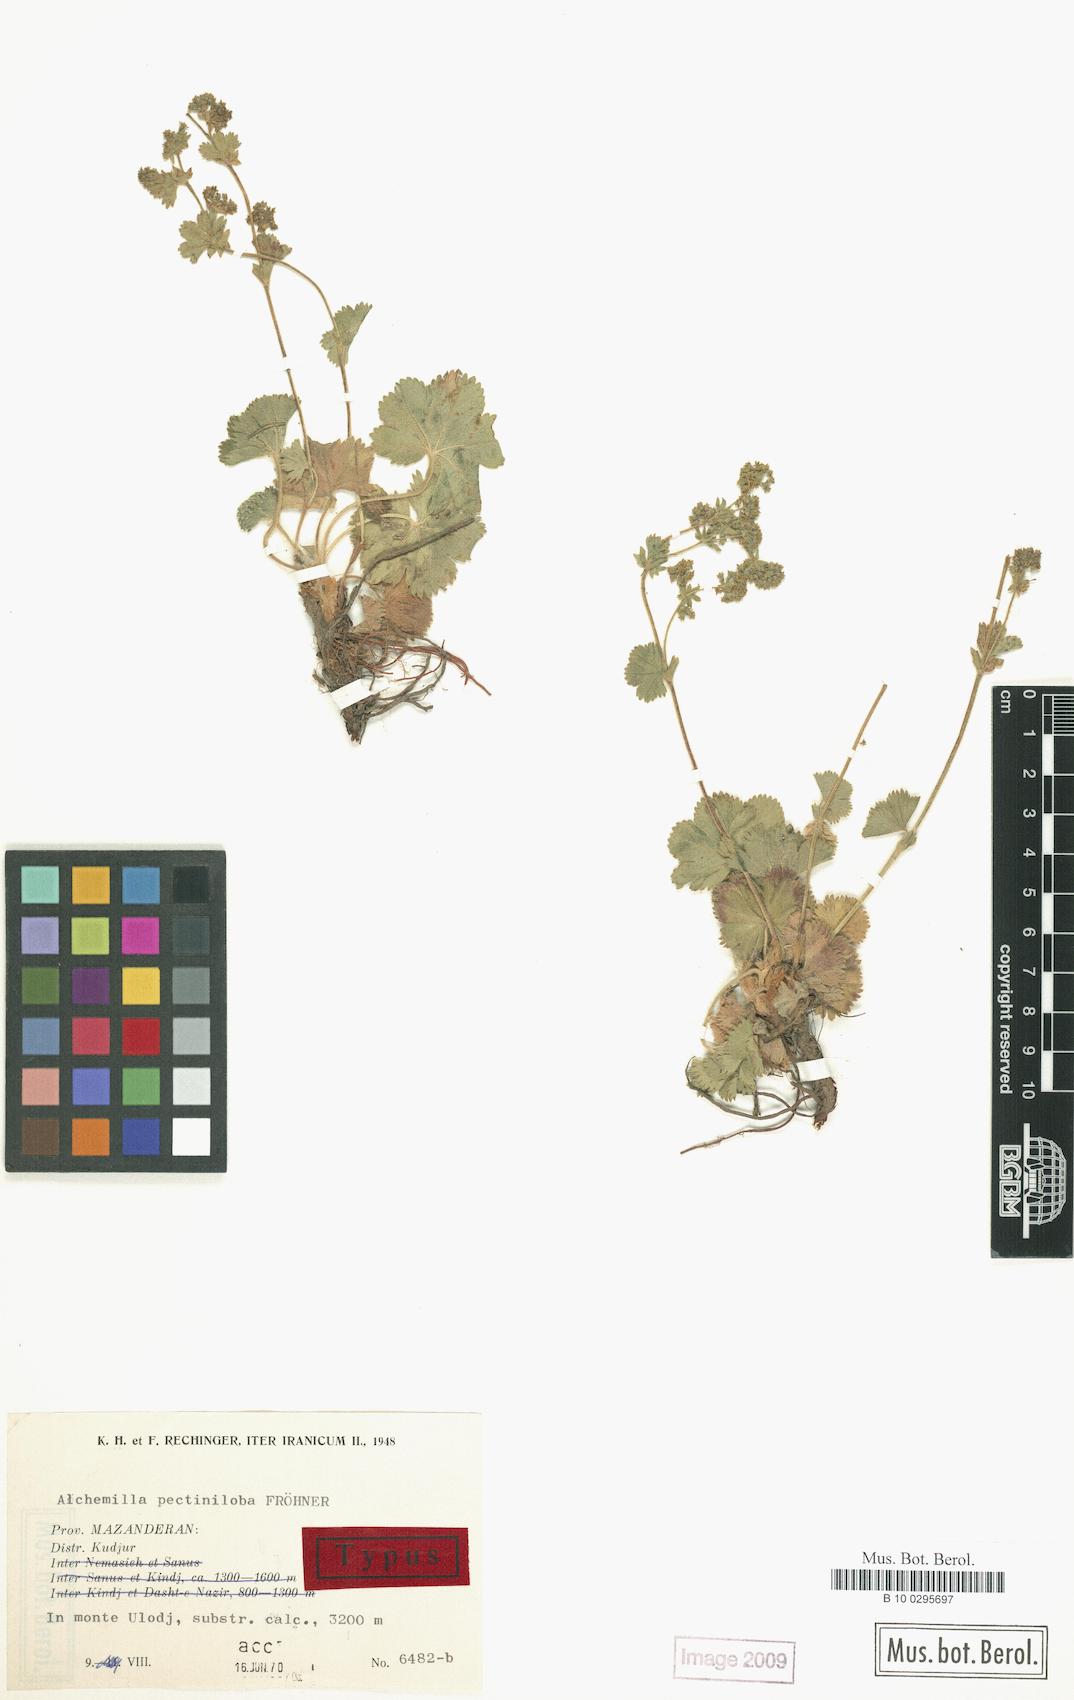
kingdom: Plantae
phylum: Tracheophyta
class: Magnoliopsida
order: Rosales
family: Rosaceae
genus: Alchemilla
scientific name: Alchemilla pectiniloba
